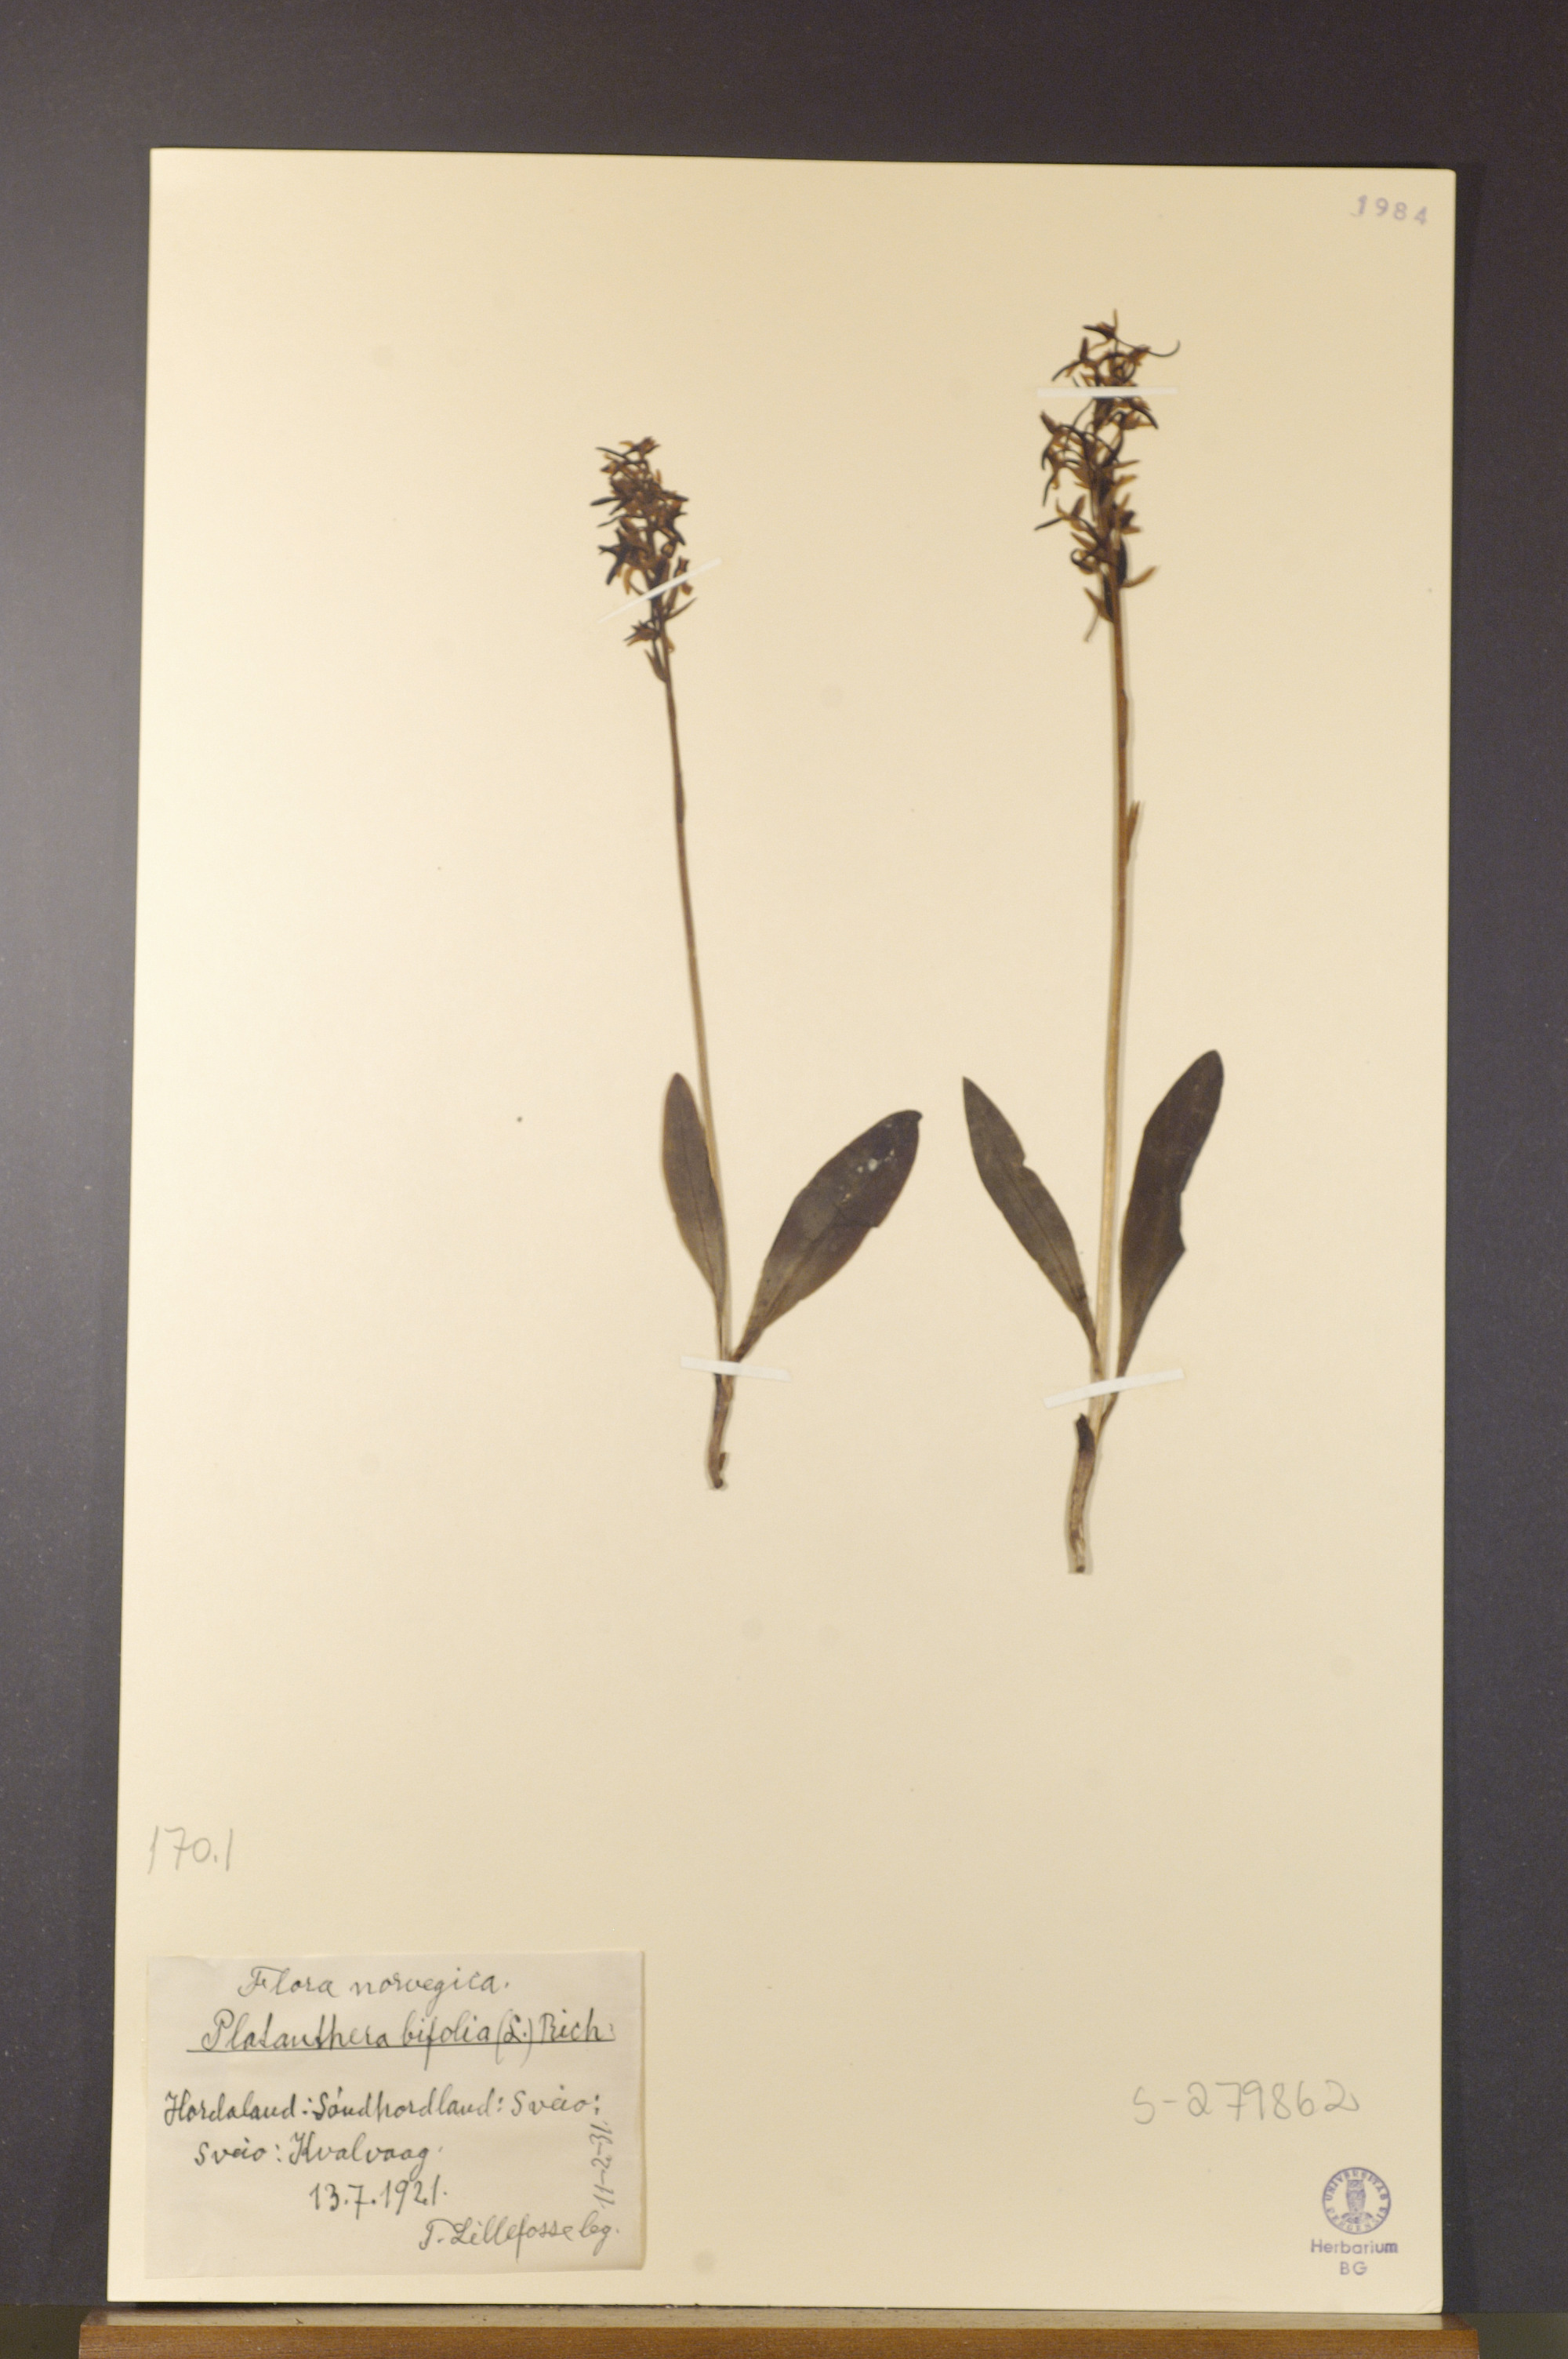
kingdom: Plantae
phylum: Tracheophyta
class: Liliopsida
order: Asparagales
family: Orchidaceae
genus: Platanthera
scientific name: Platanthera bifolia
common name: Lesser butterfly-orchid
